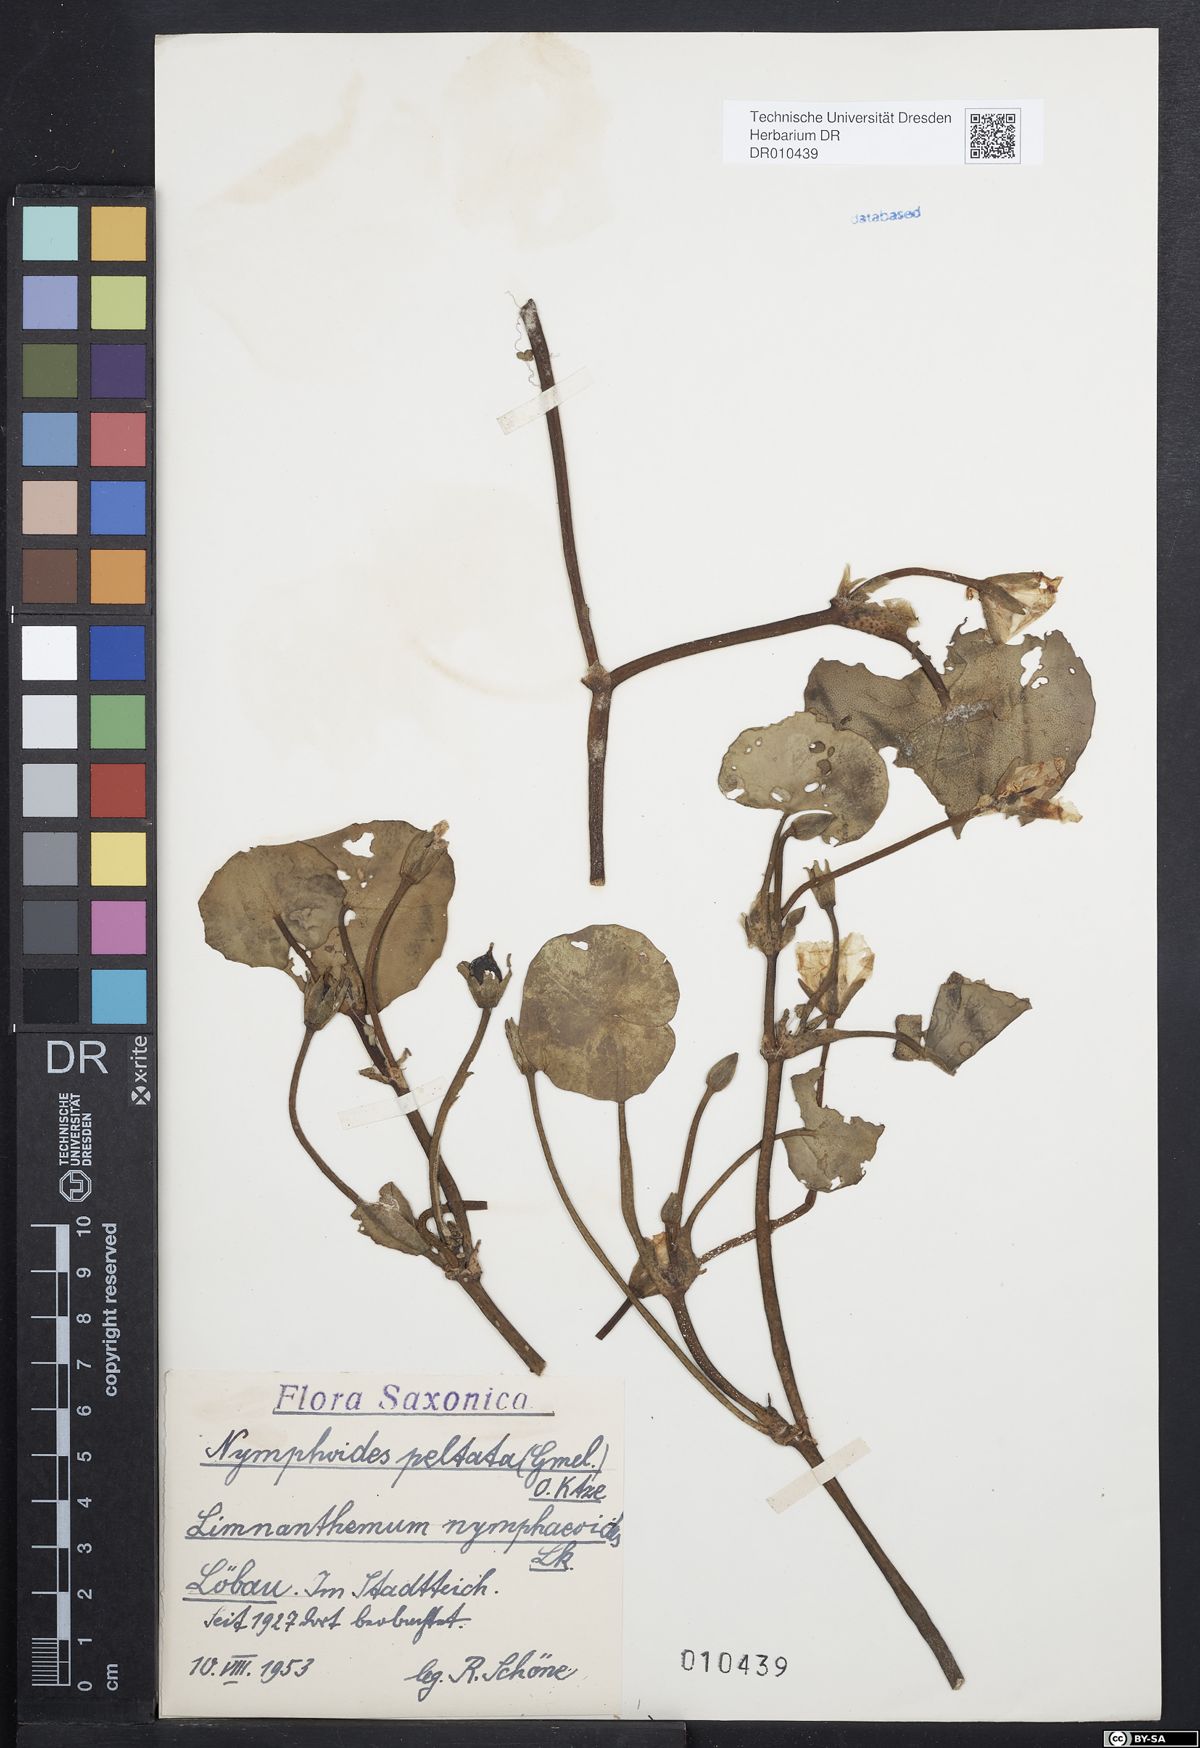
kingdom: Plantae
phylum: Tracheophyta
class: Magnoliopsida
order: Asterales
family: Menyanthaceae
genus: Nymphoides
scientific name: Nymphoides peltata
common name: Fringed water-lily
